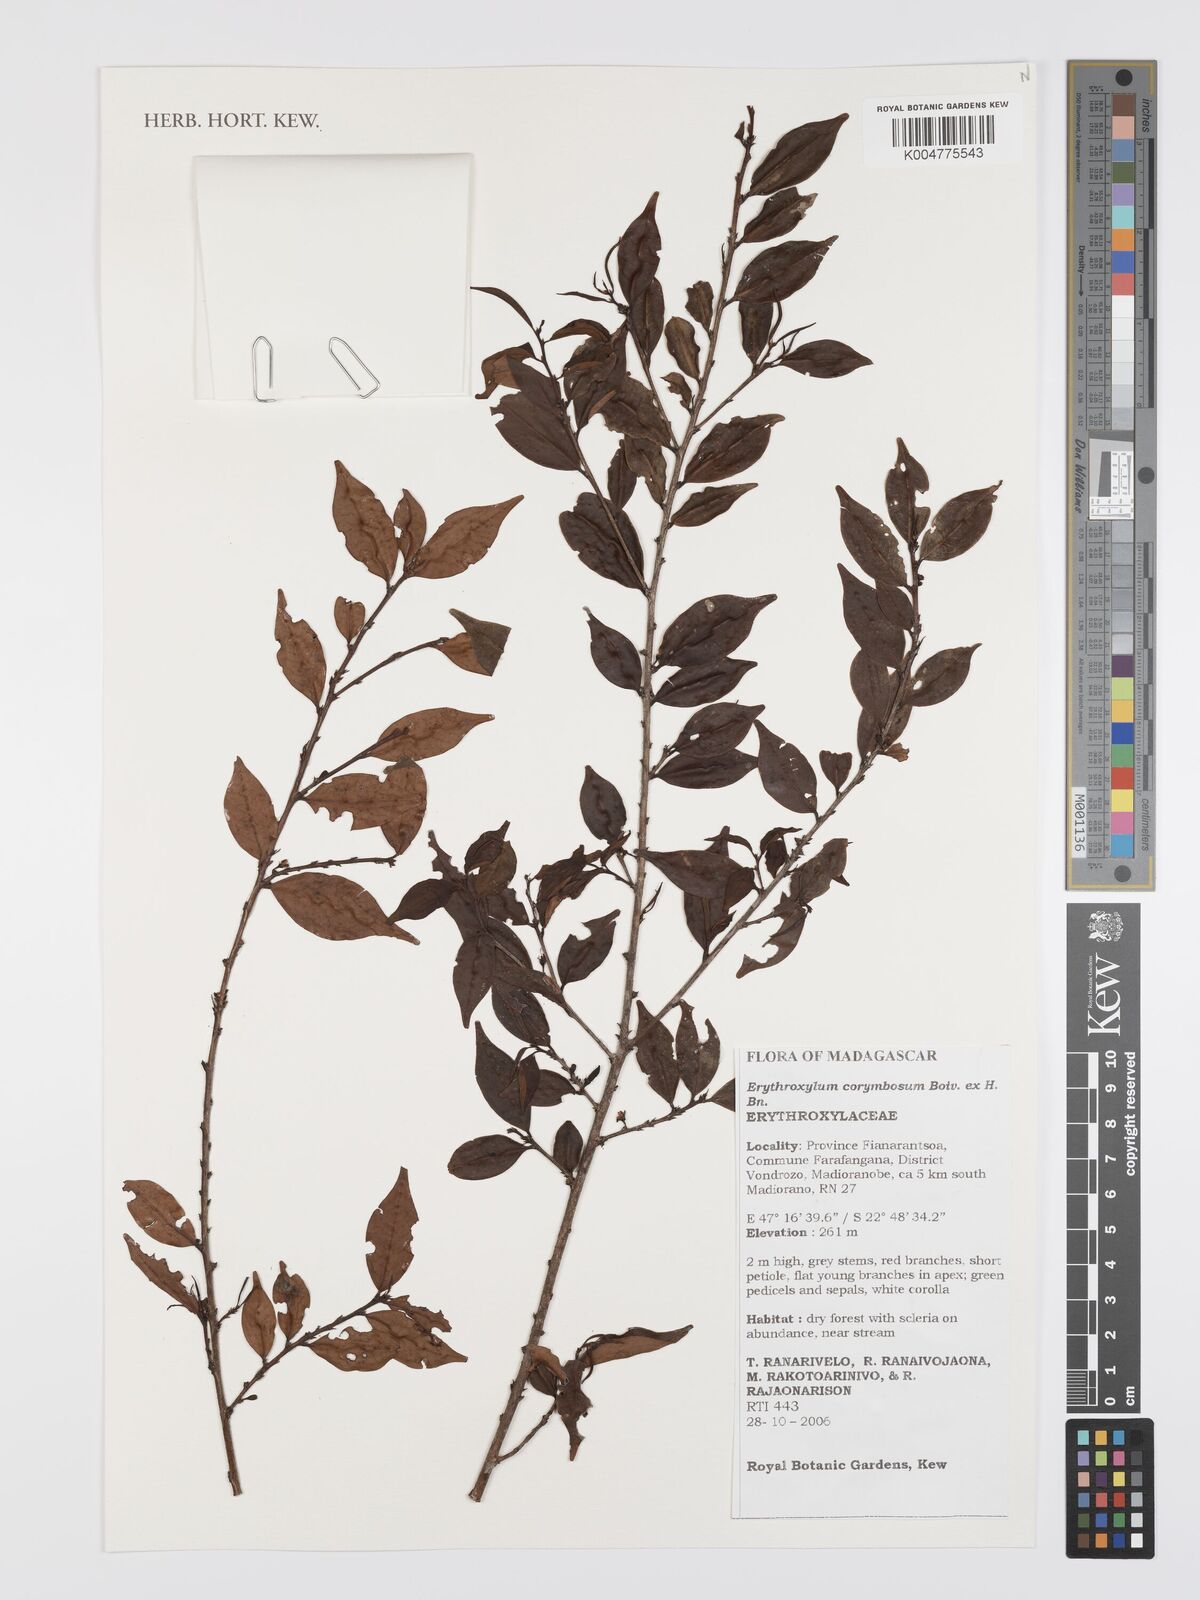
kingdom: Plantae
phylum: Tracheophyta
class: Magnoliopsida
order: Malpighiales
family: Erythroxylaceae
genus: Erythroxylum
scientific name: Erythroxylum corymbosum
